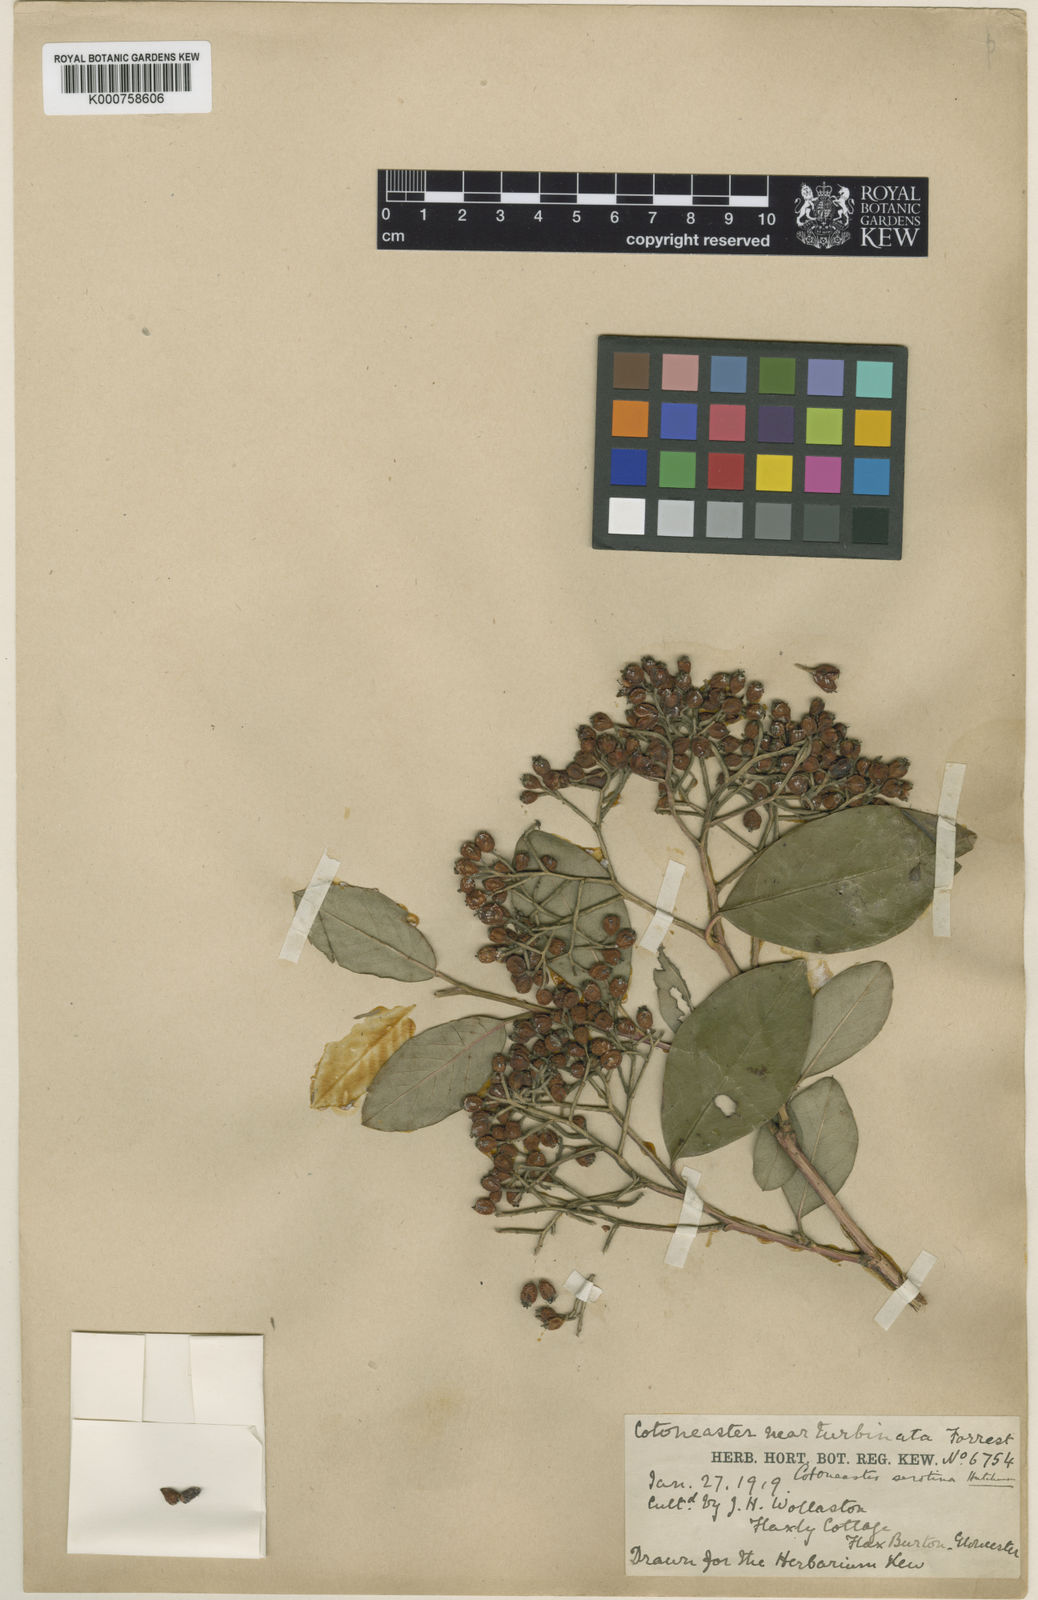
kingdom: Plantae
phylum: Tracheophyta
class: Magnoliopsida
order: Rosales
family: Rosaceae
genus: Cotoneaster
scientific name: Cotoneaster glaucophyllus
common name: Glaucous cotoneaster
